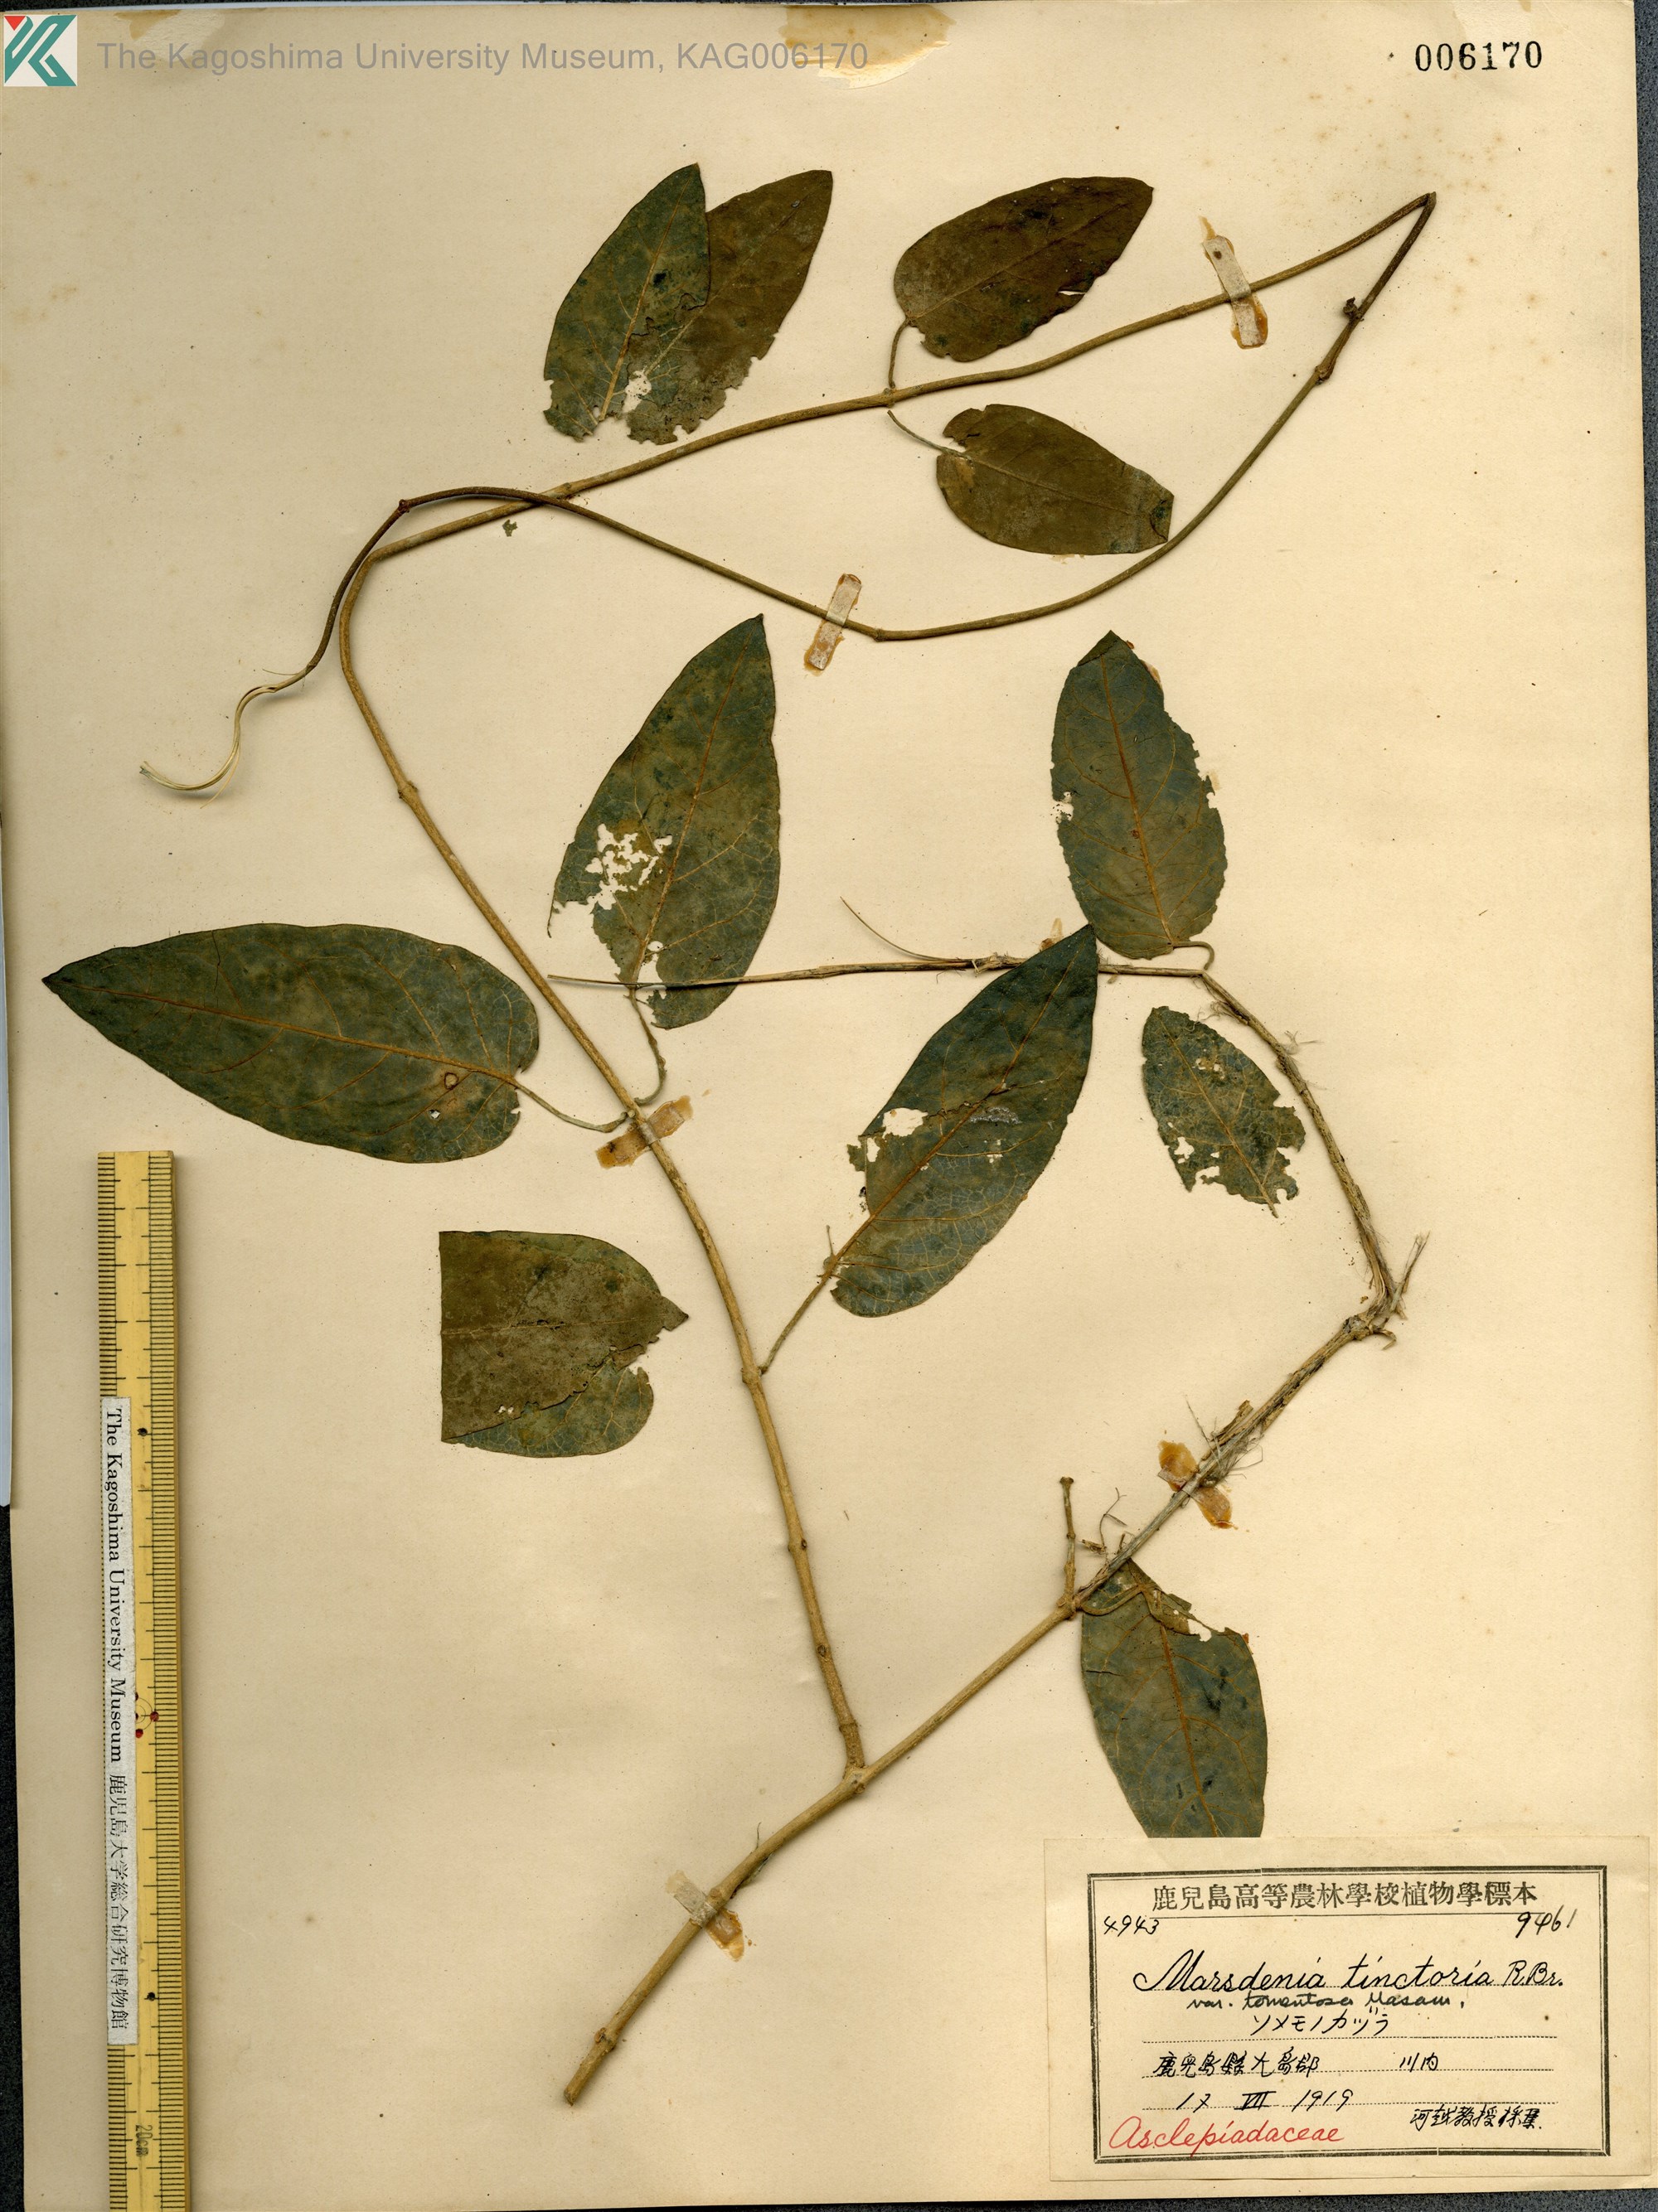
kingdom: Plantae
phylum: Tracheophyta
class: Magnoliopsida
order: Gentianales
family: Apocynaceae
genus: Marsdenia
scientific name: Marsdenia tinctoria
